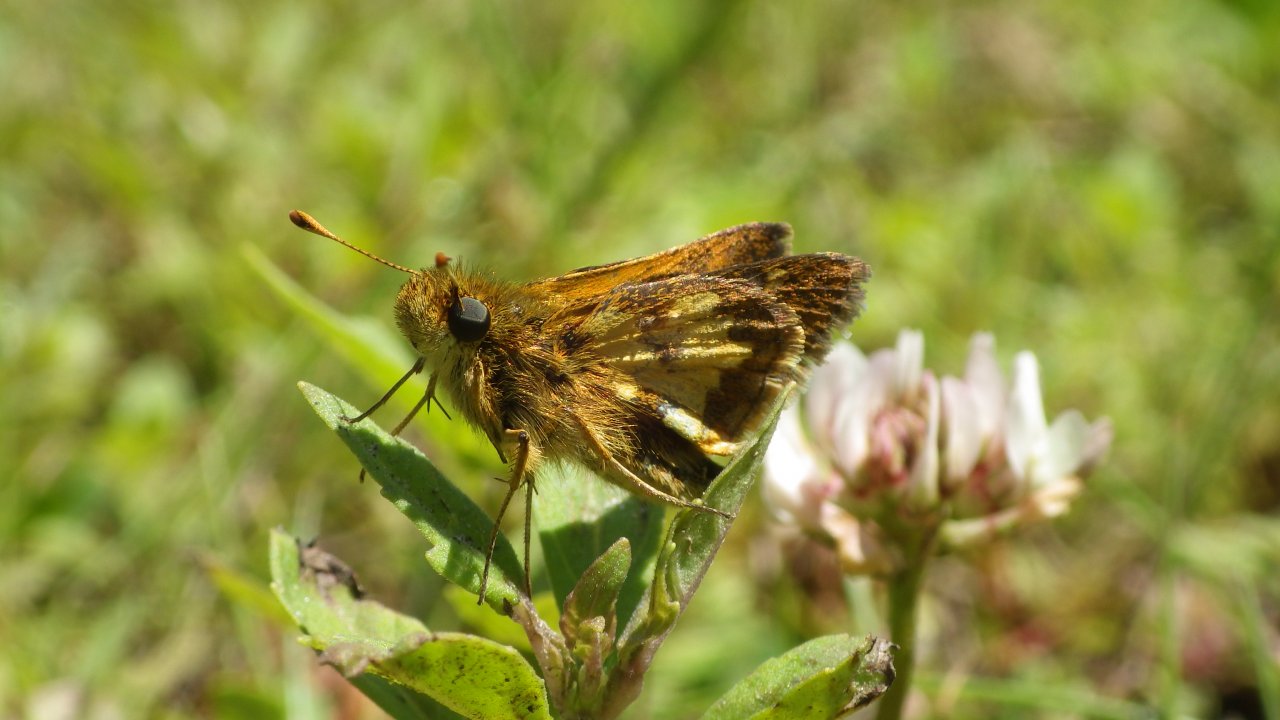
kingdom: Animalia
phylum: Arthropoda
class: Insecta
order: Lepidoptera
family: Hesperiidae
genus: Polites
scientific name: Polites coras
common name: Peck's Skipper
